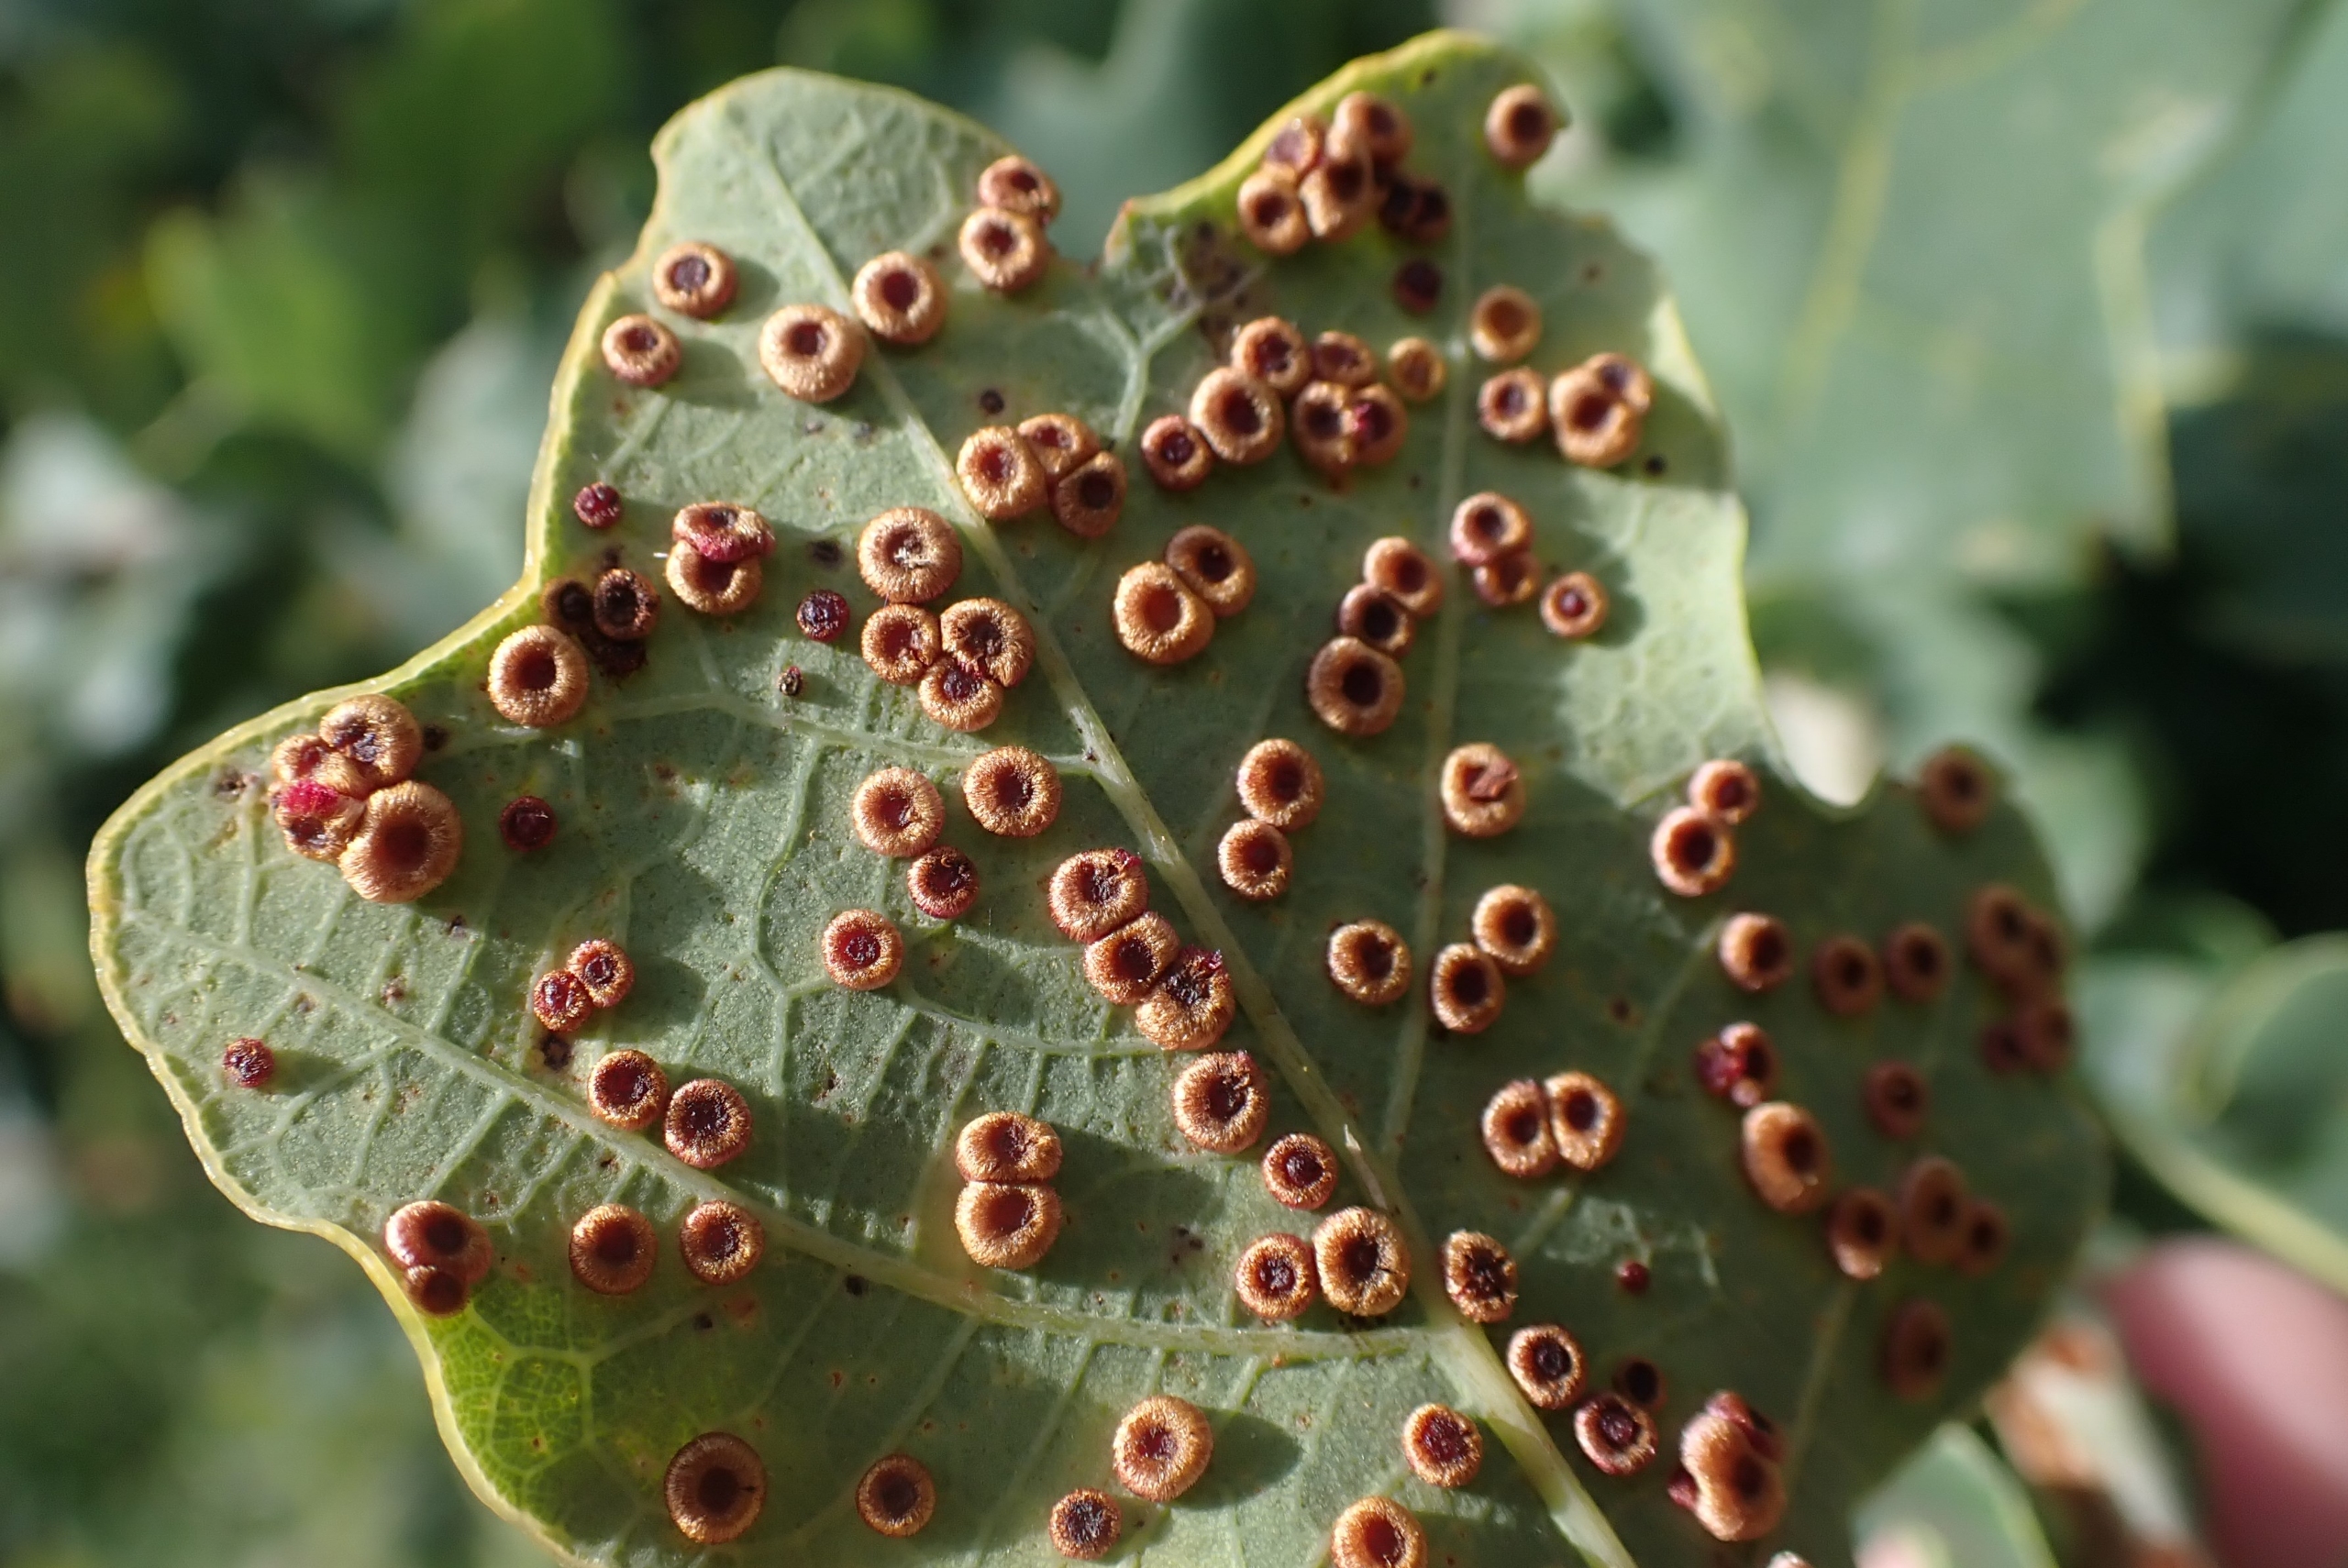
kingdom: Animalia
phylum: Arthropoda
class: Insecta
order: Hymenoptera
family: Cynipidae
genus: Neuroterus
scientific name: Neuroterus numismalis
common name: Knapgalhveps
